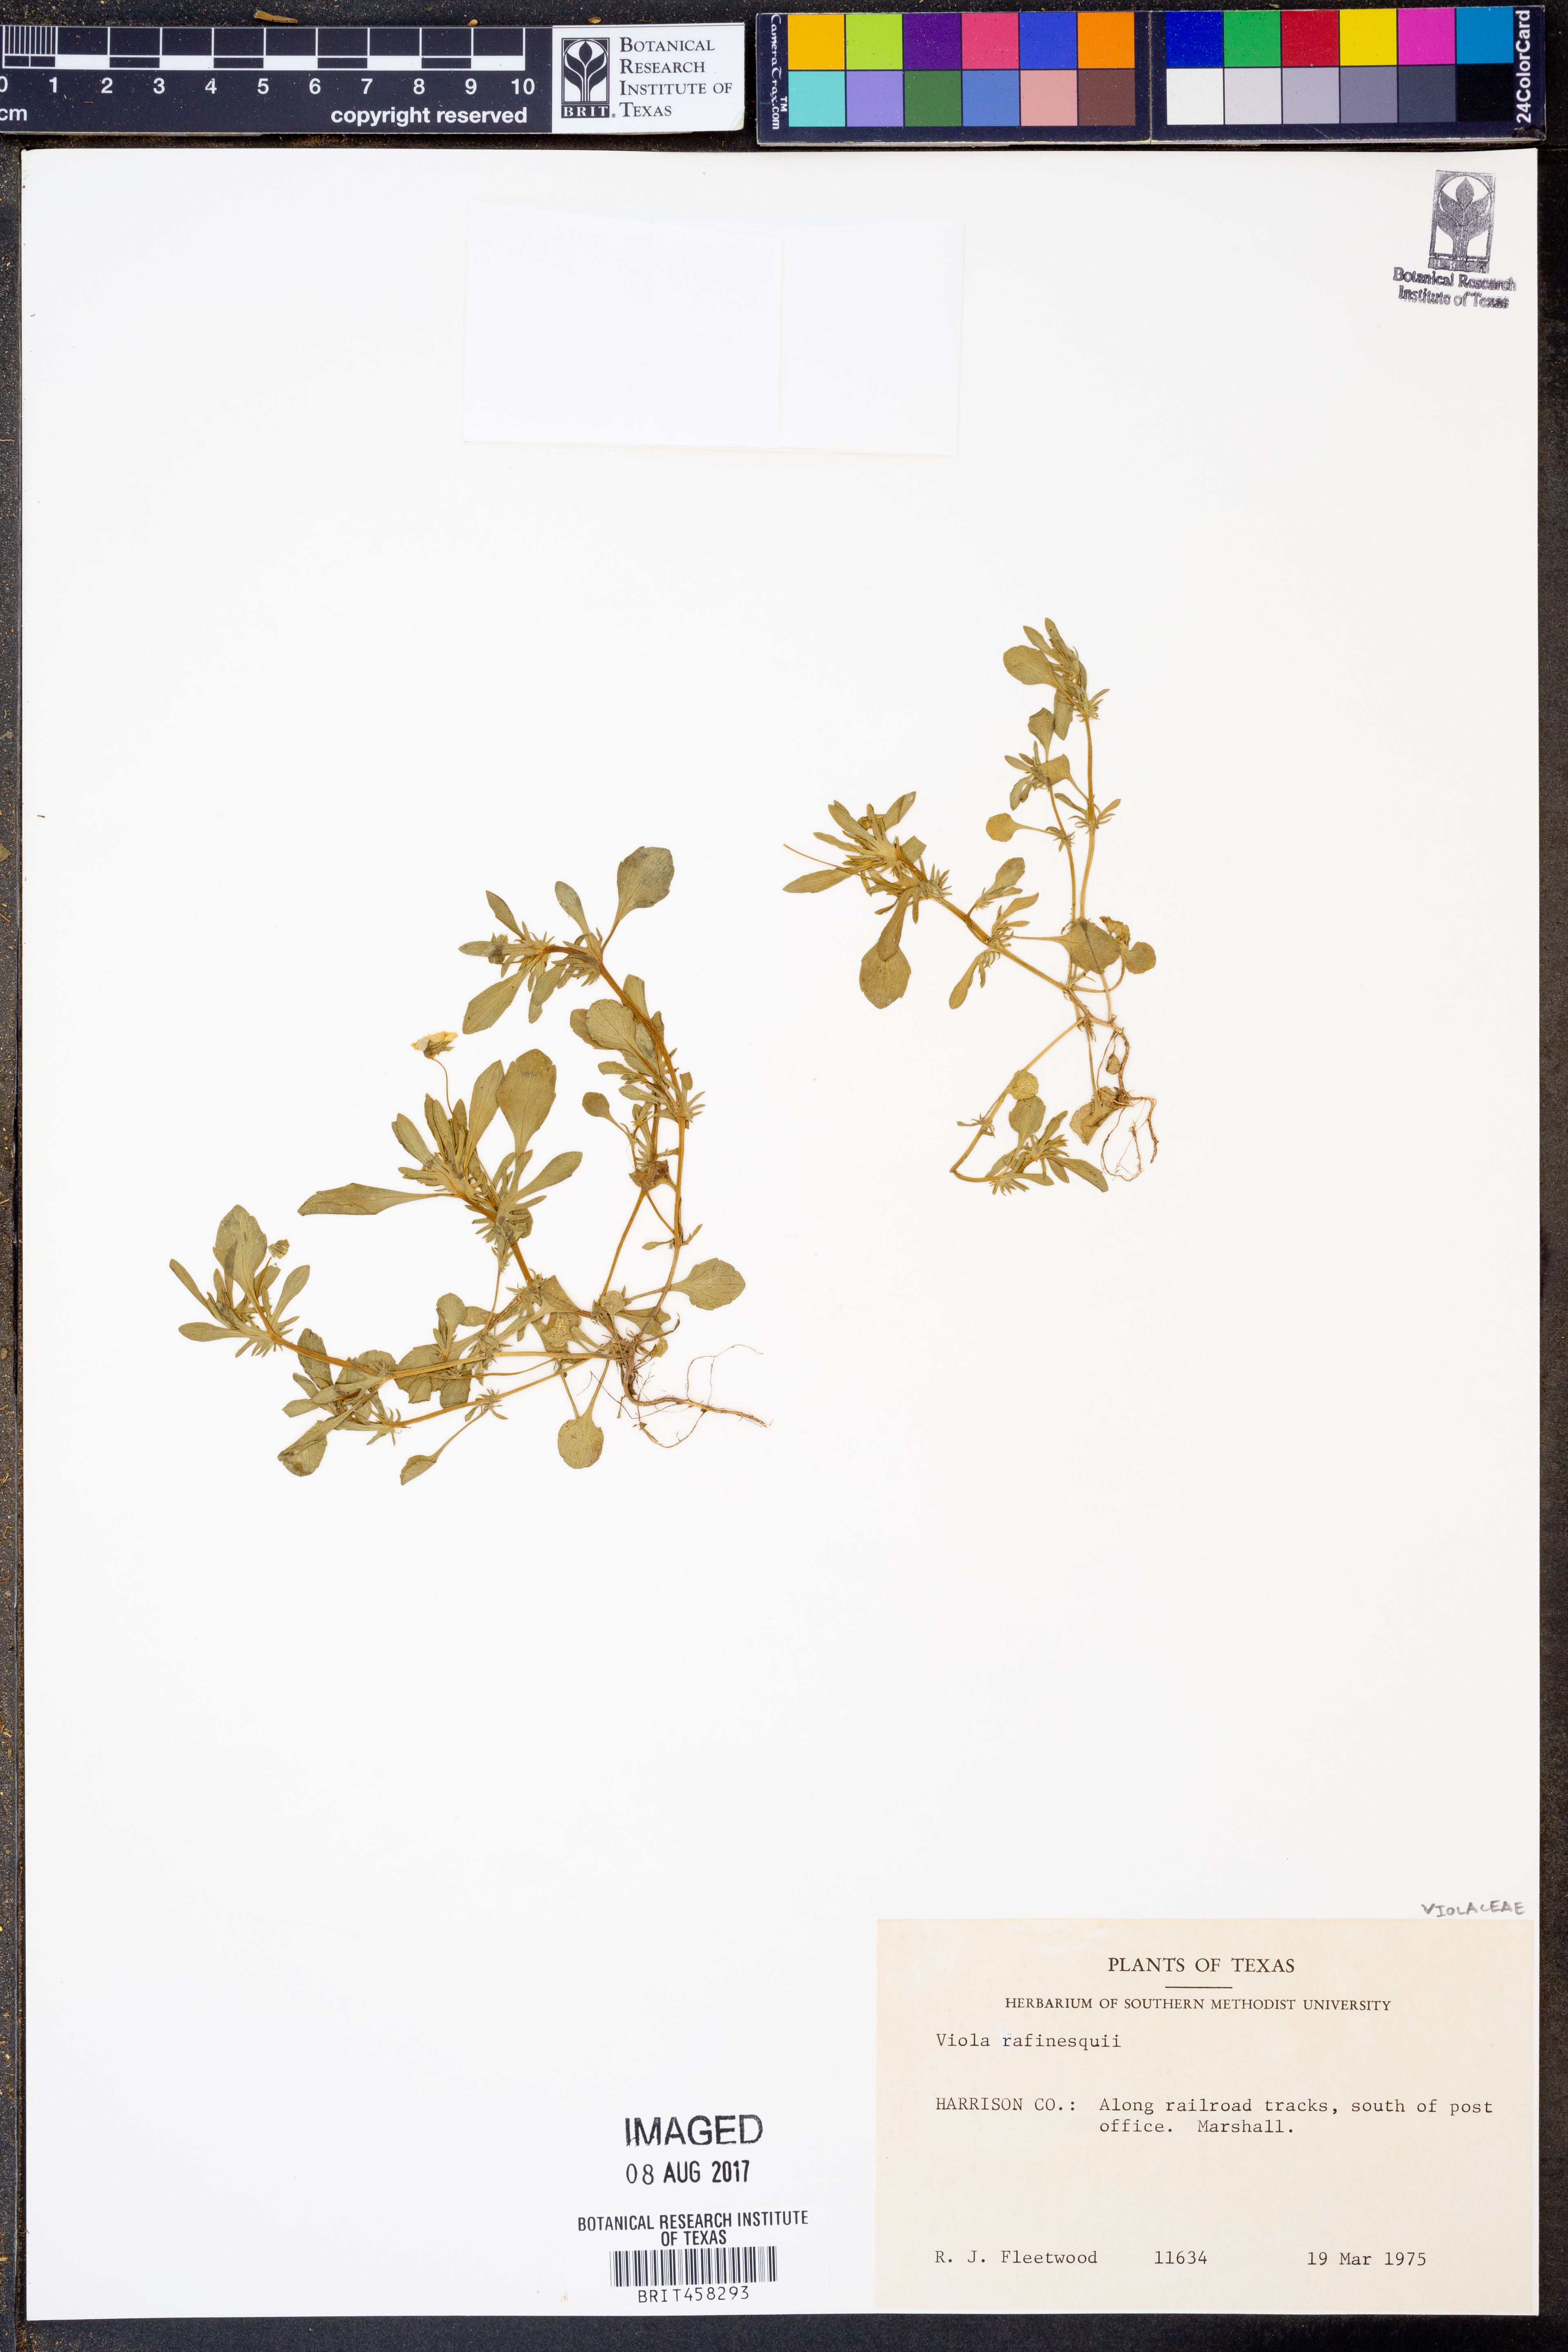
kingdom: Plantae
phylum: Tracheophyta
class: Magnoliopsida
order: Malpighiales
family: Violaceae
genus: Viola
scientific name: Viola rafinesquei
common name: American field pansy
